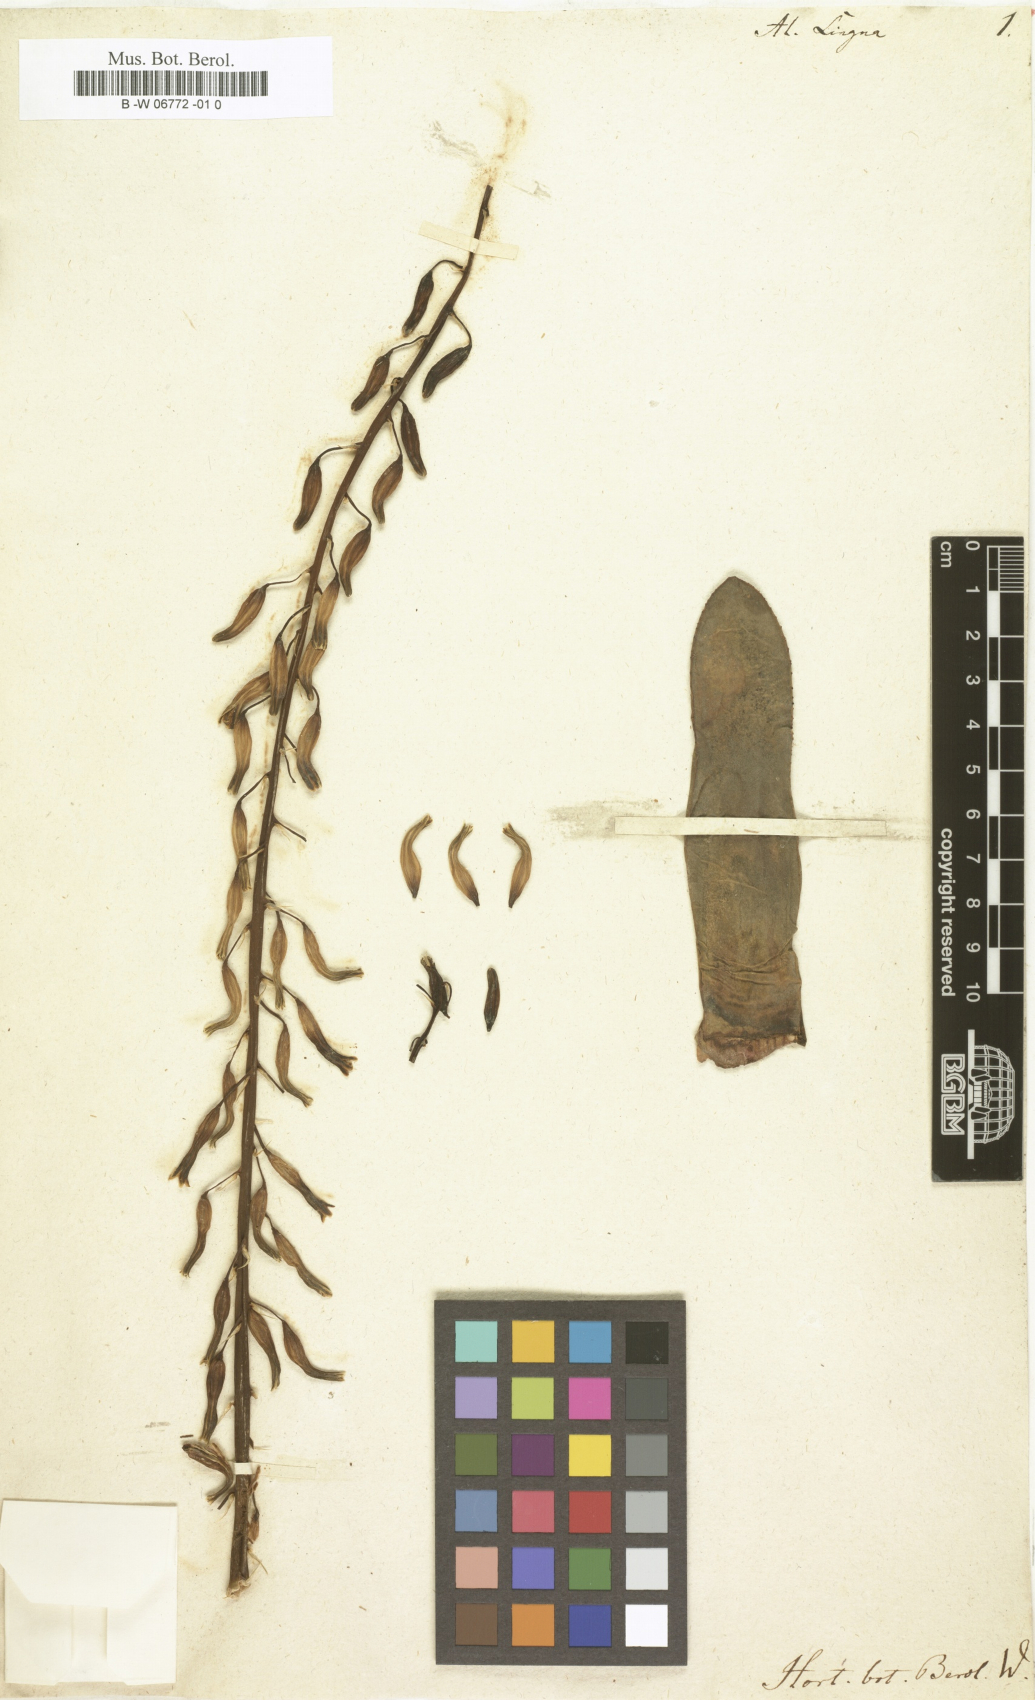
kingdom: Plantae
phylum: Tracheophyta
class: Liliopsida
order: Asparagales
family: Asphodelaceae
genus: Gasteria
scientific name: Gasteria obliqua
